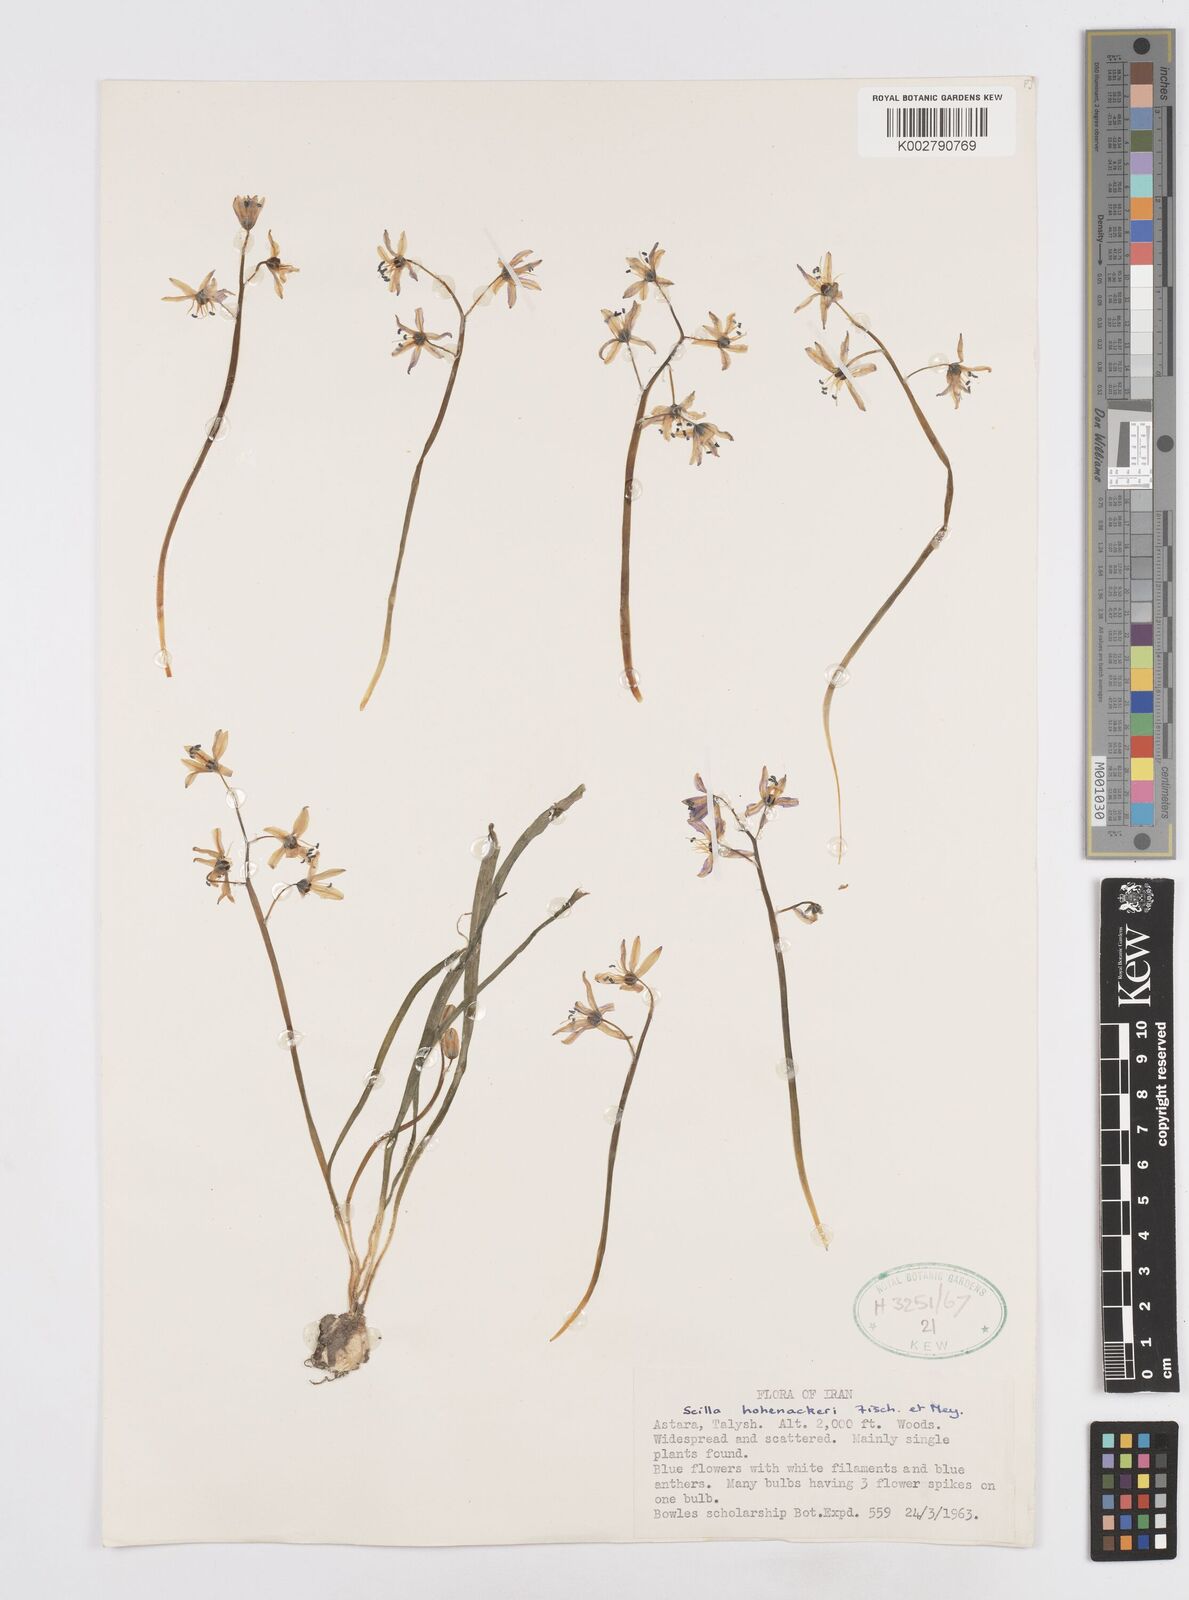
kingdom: Plantae
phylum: Tracheophyta
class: Liliopsida
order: Asparagales
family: Asparagaceae
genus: Fessia
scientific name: Fessia hohenackeri
